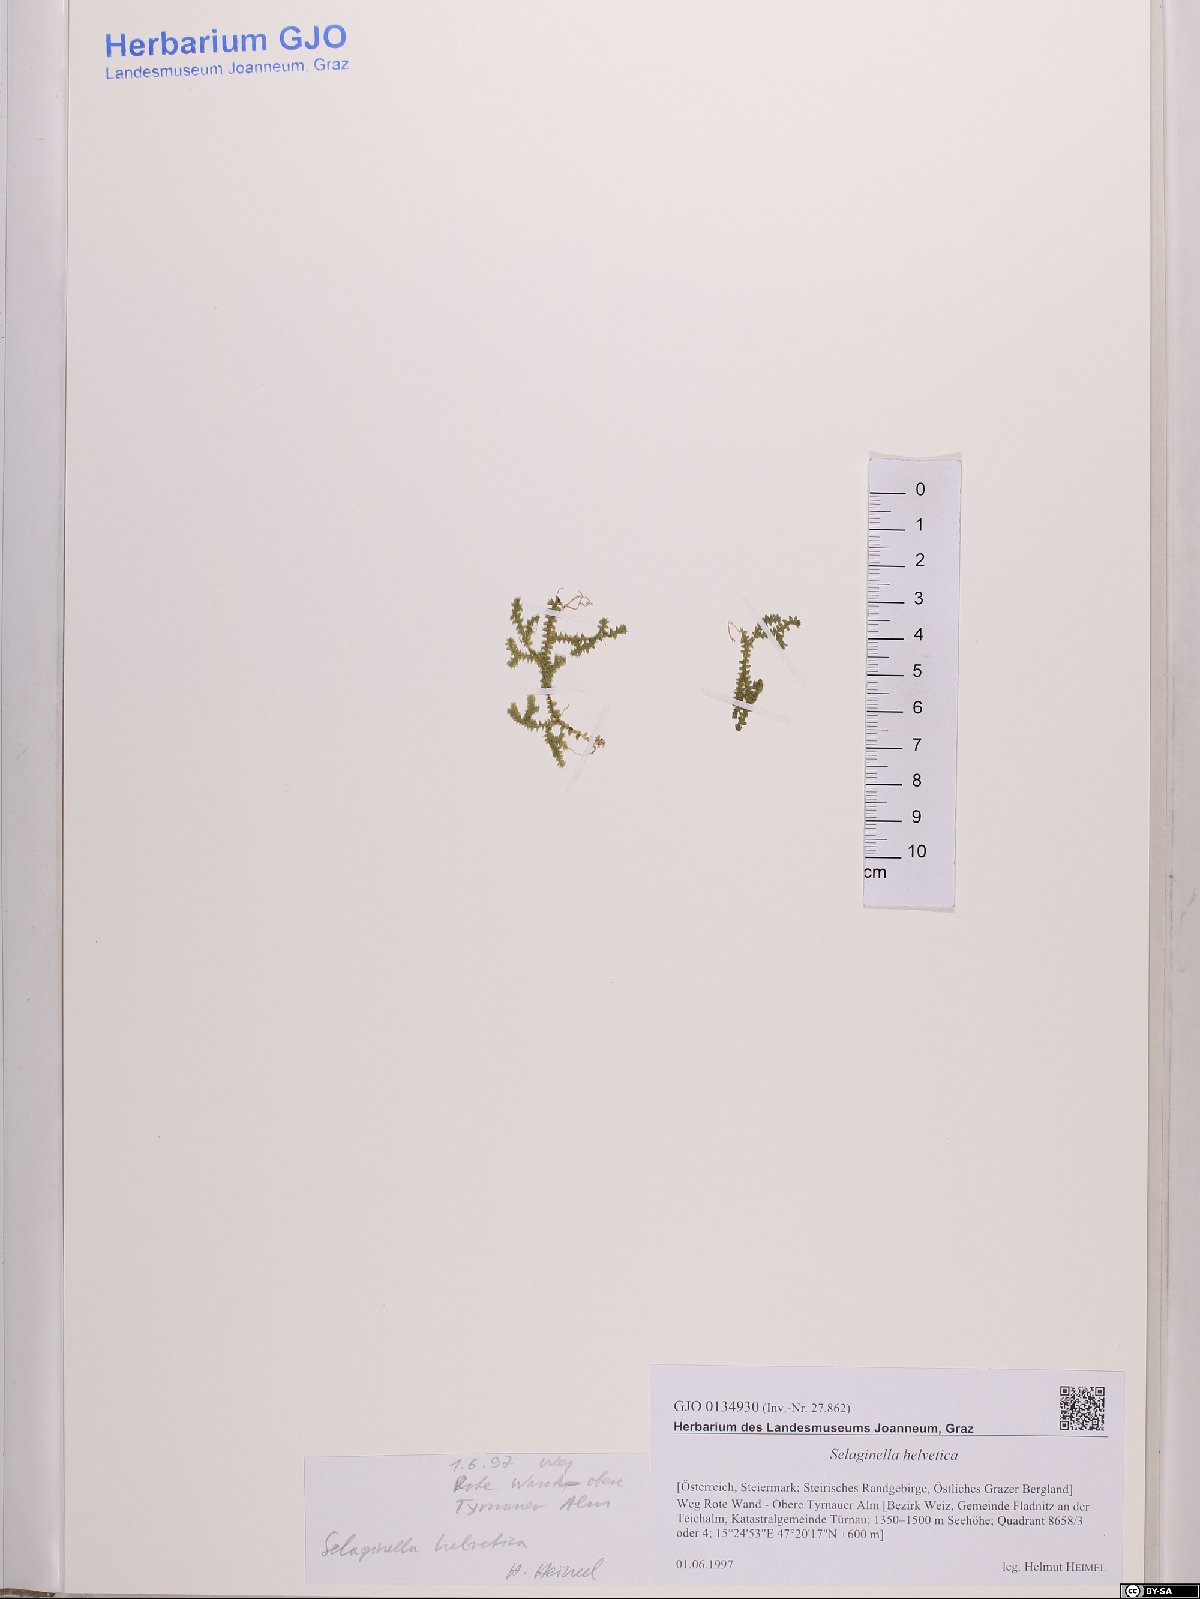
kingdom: Plantae
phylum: Tracheophyta
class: Lycopodiopsida
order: Selaginellales
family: Selaginellaceae
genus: Selaginella
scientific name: Selaginella helvetica
